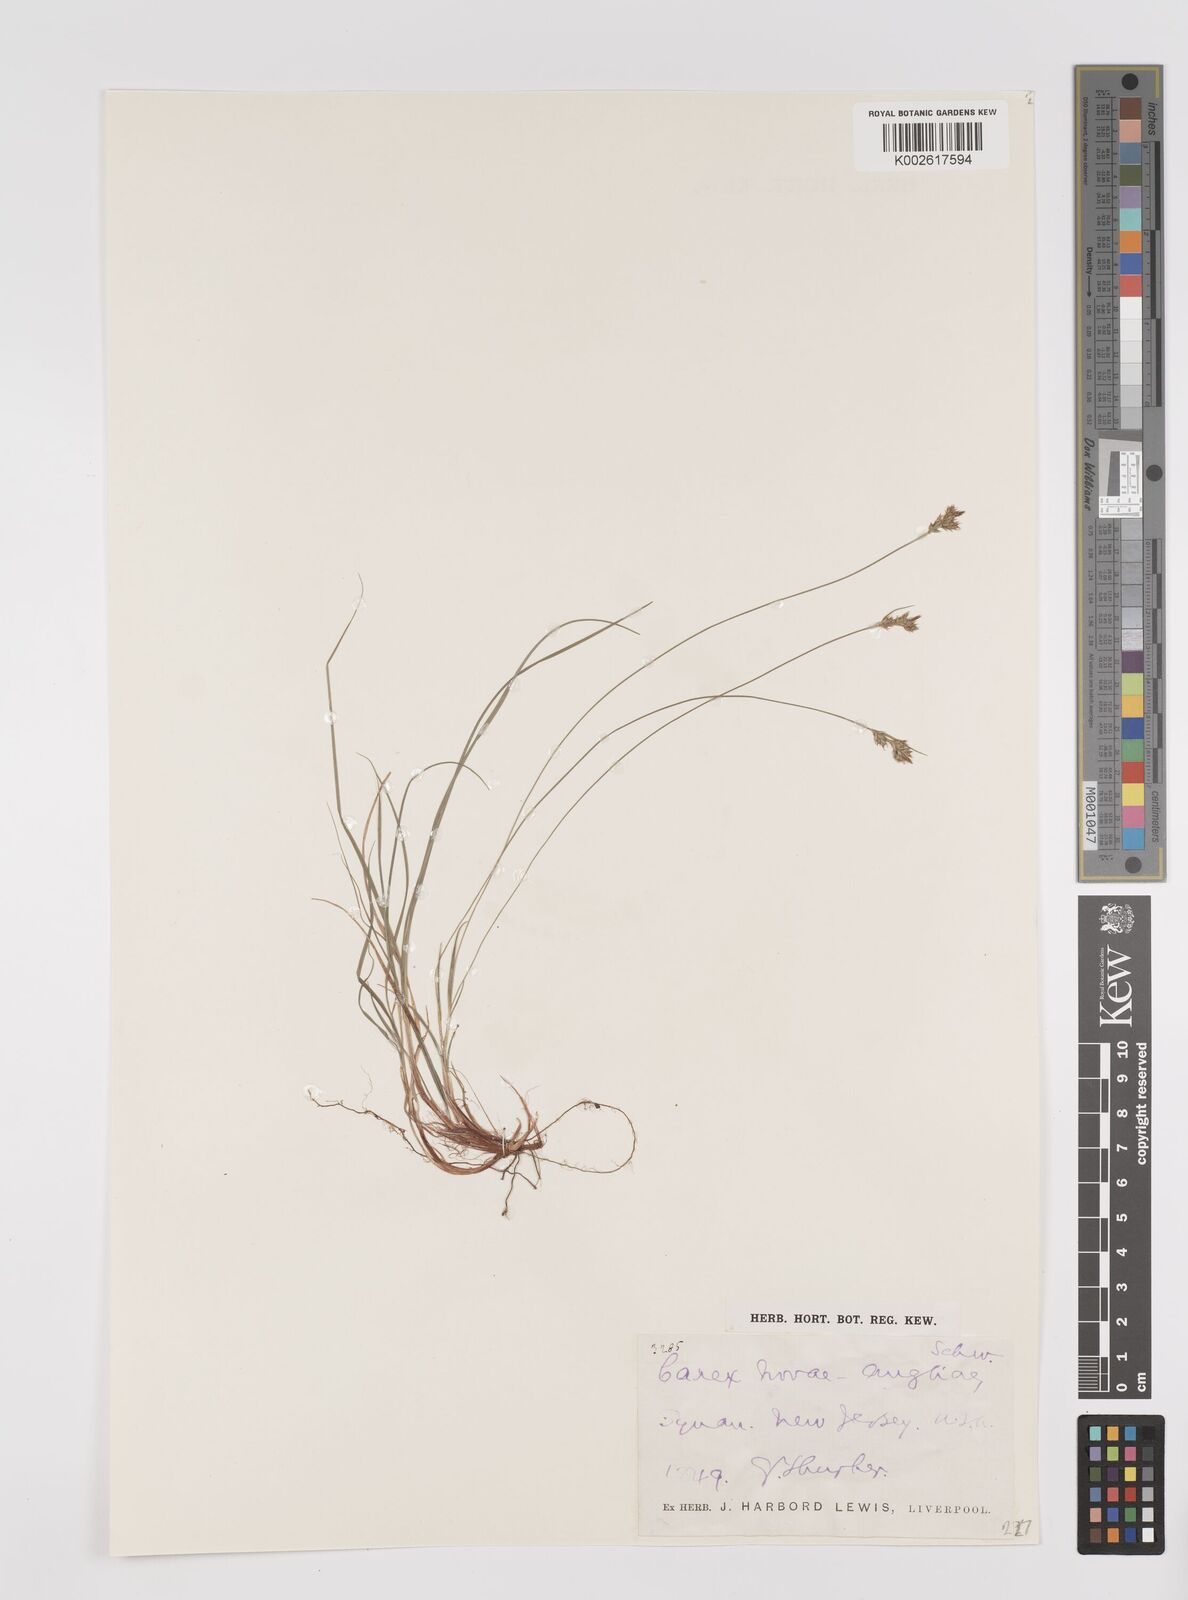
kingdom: Plantae
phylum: Tracheophyta
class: Liliopsida
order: Poales
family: Cyperaceae
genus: Carex
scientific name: Carex deflexa
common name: Bent northern sedge
